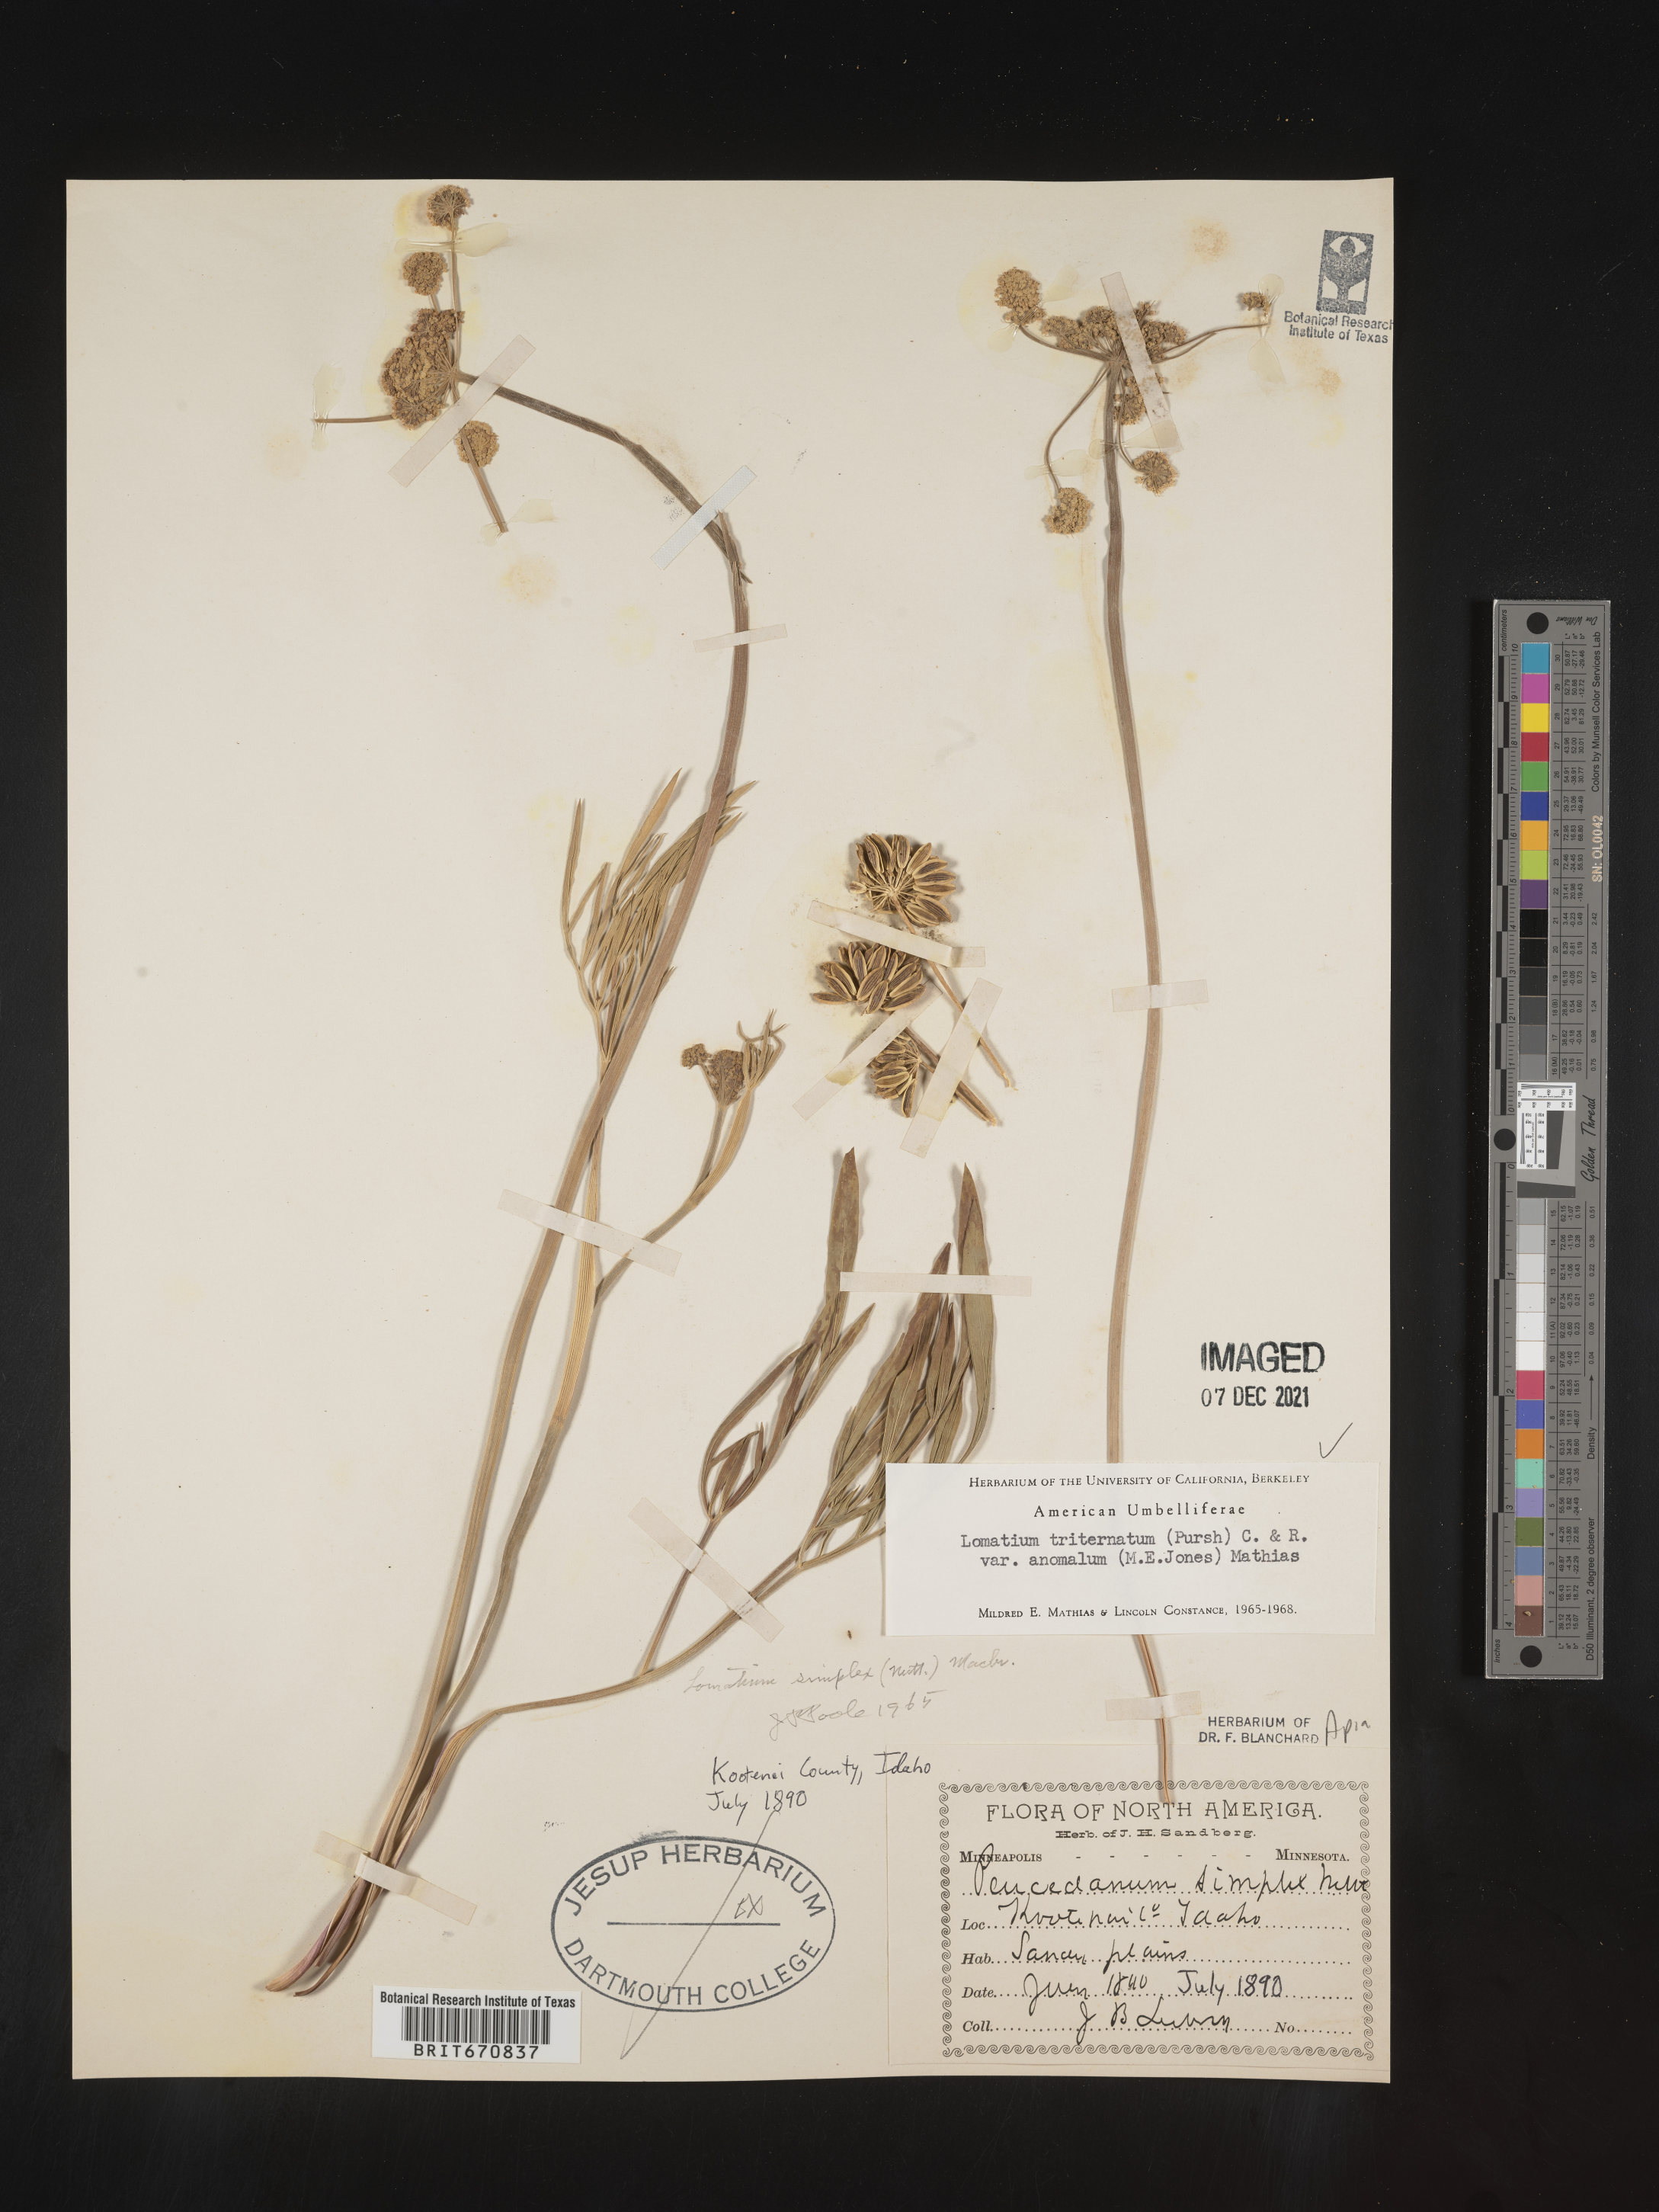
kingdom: Plantae
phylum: Tracheophyta
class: Magnoliopsida
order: Apiales
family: Apiaceae
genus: Lomatium
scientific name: Lomatium triternatum
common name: Ternate lomatium
